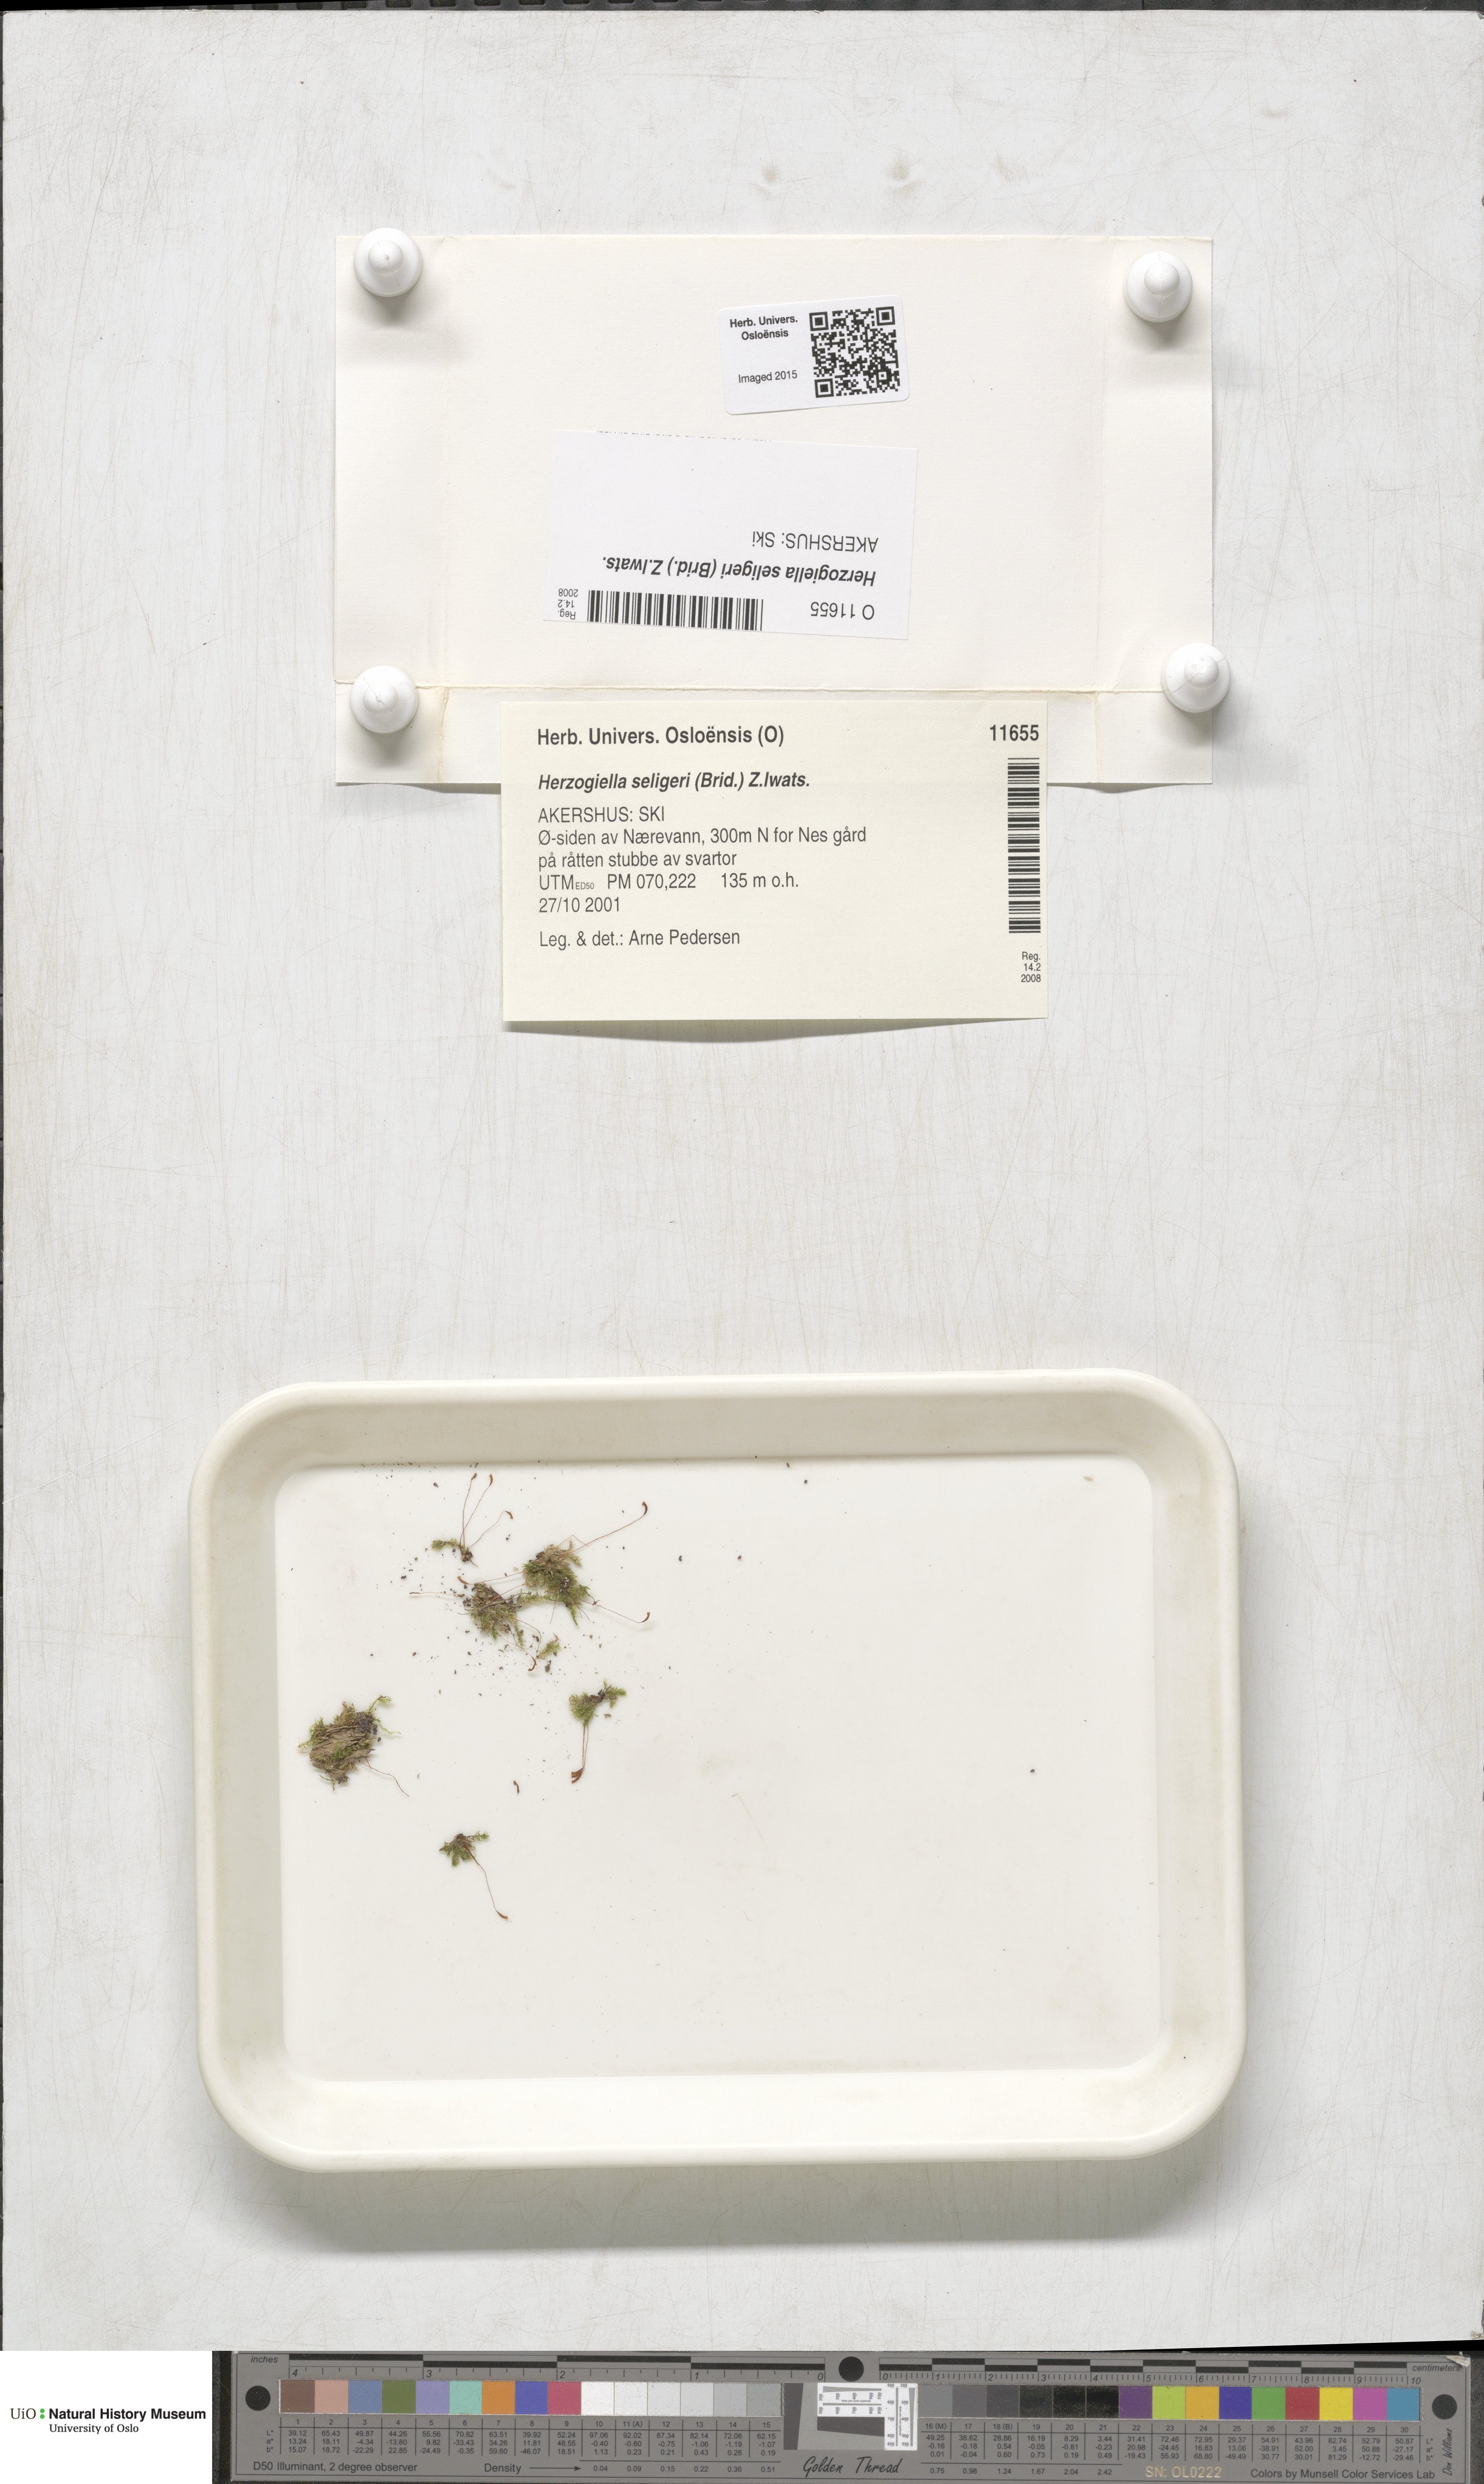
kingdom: Plantae
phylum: Bryophyta
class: Bryopsida
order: Hypnales
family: Plagiotheciaceae
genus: Herzogiella
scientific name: Herzogiella seligeri
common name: Silesian feather-moss
